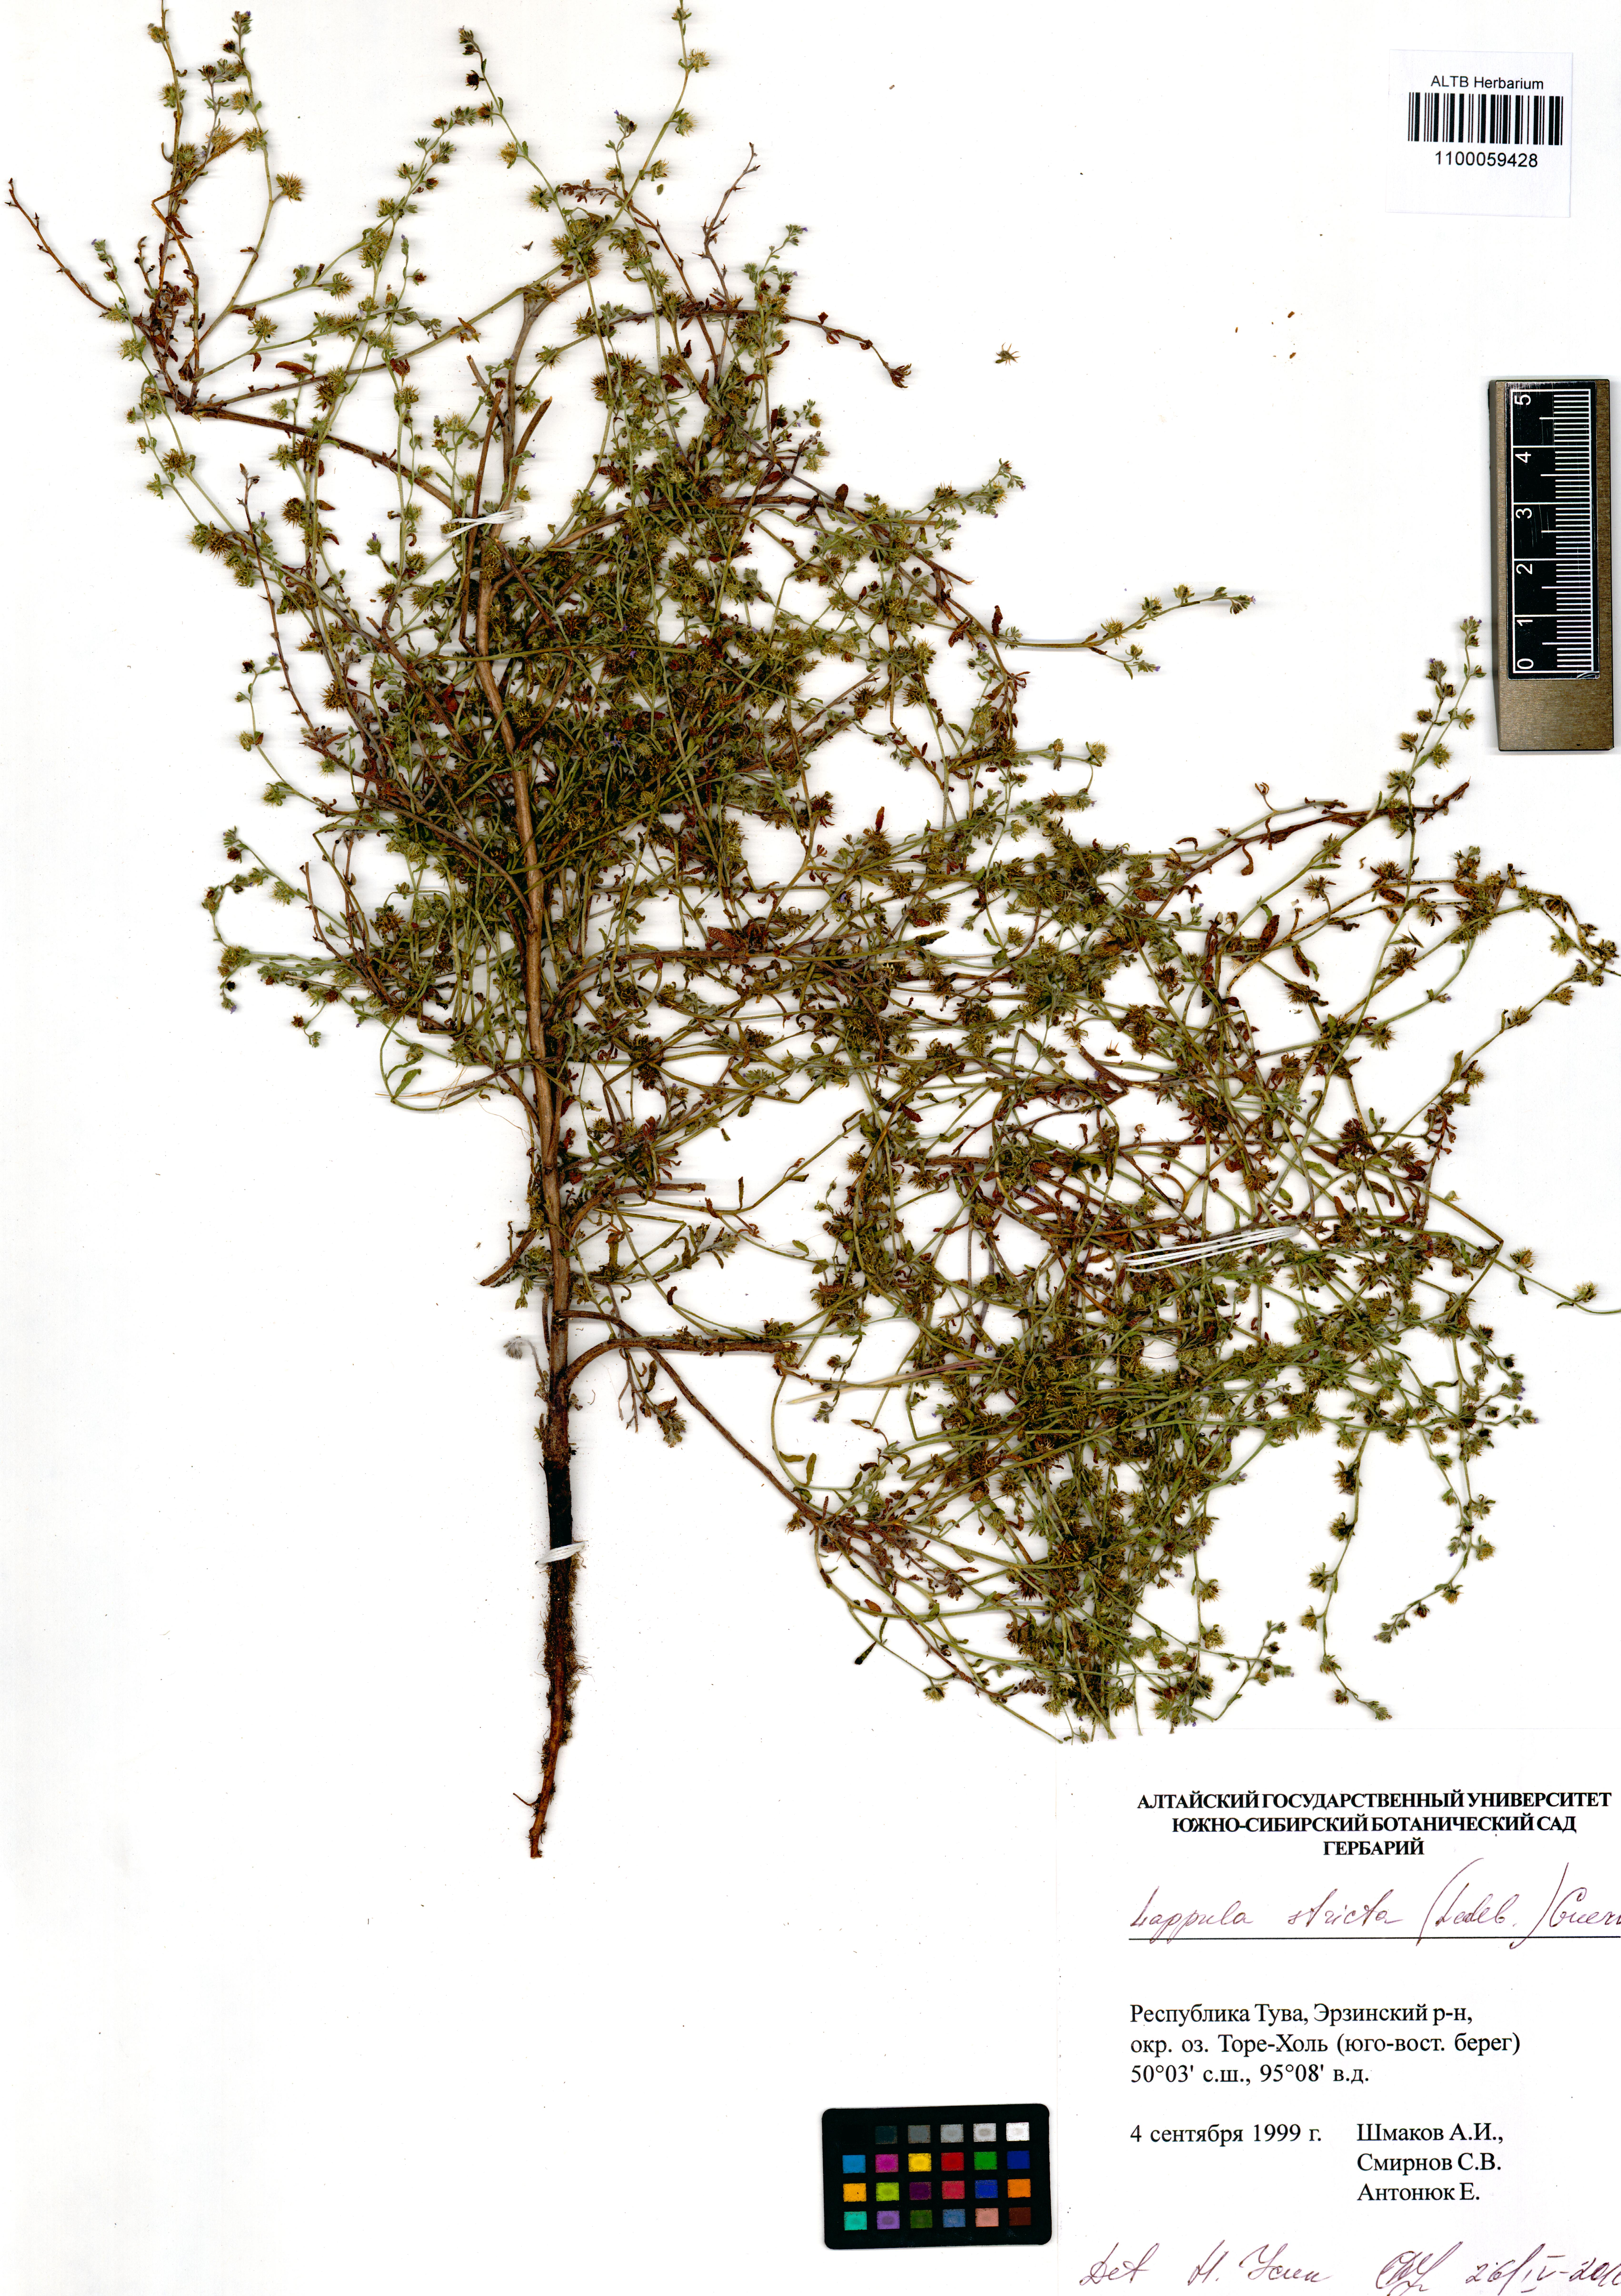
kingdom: Plantae
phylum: Tracheophyta
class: Magnoliopsida
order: Boraginales
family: Boraginaceae
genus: Lappula
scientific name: Lappula stricta
